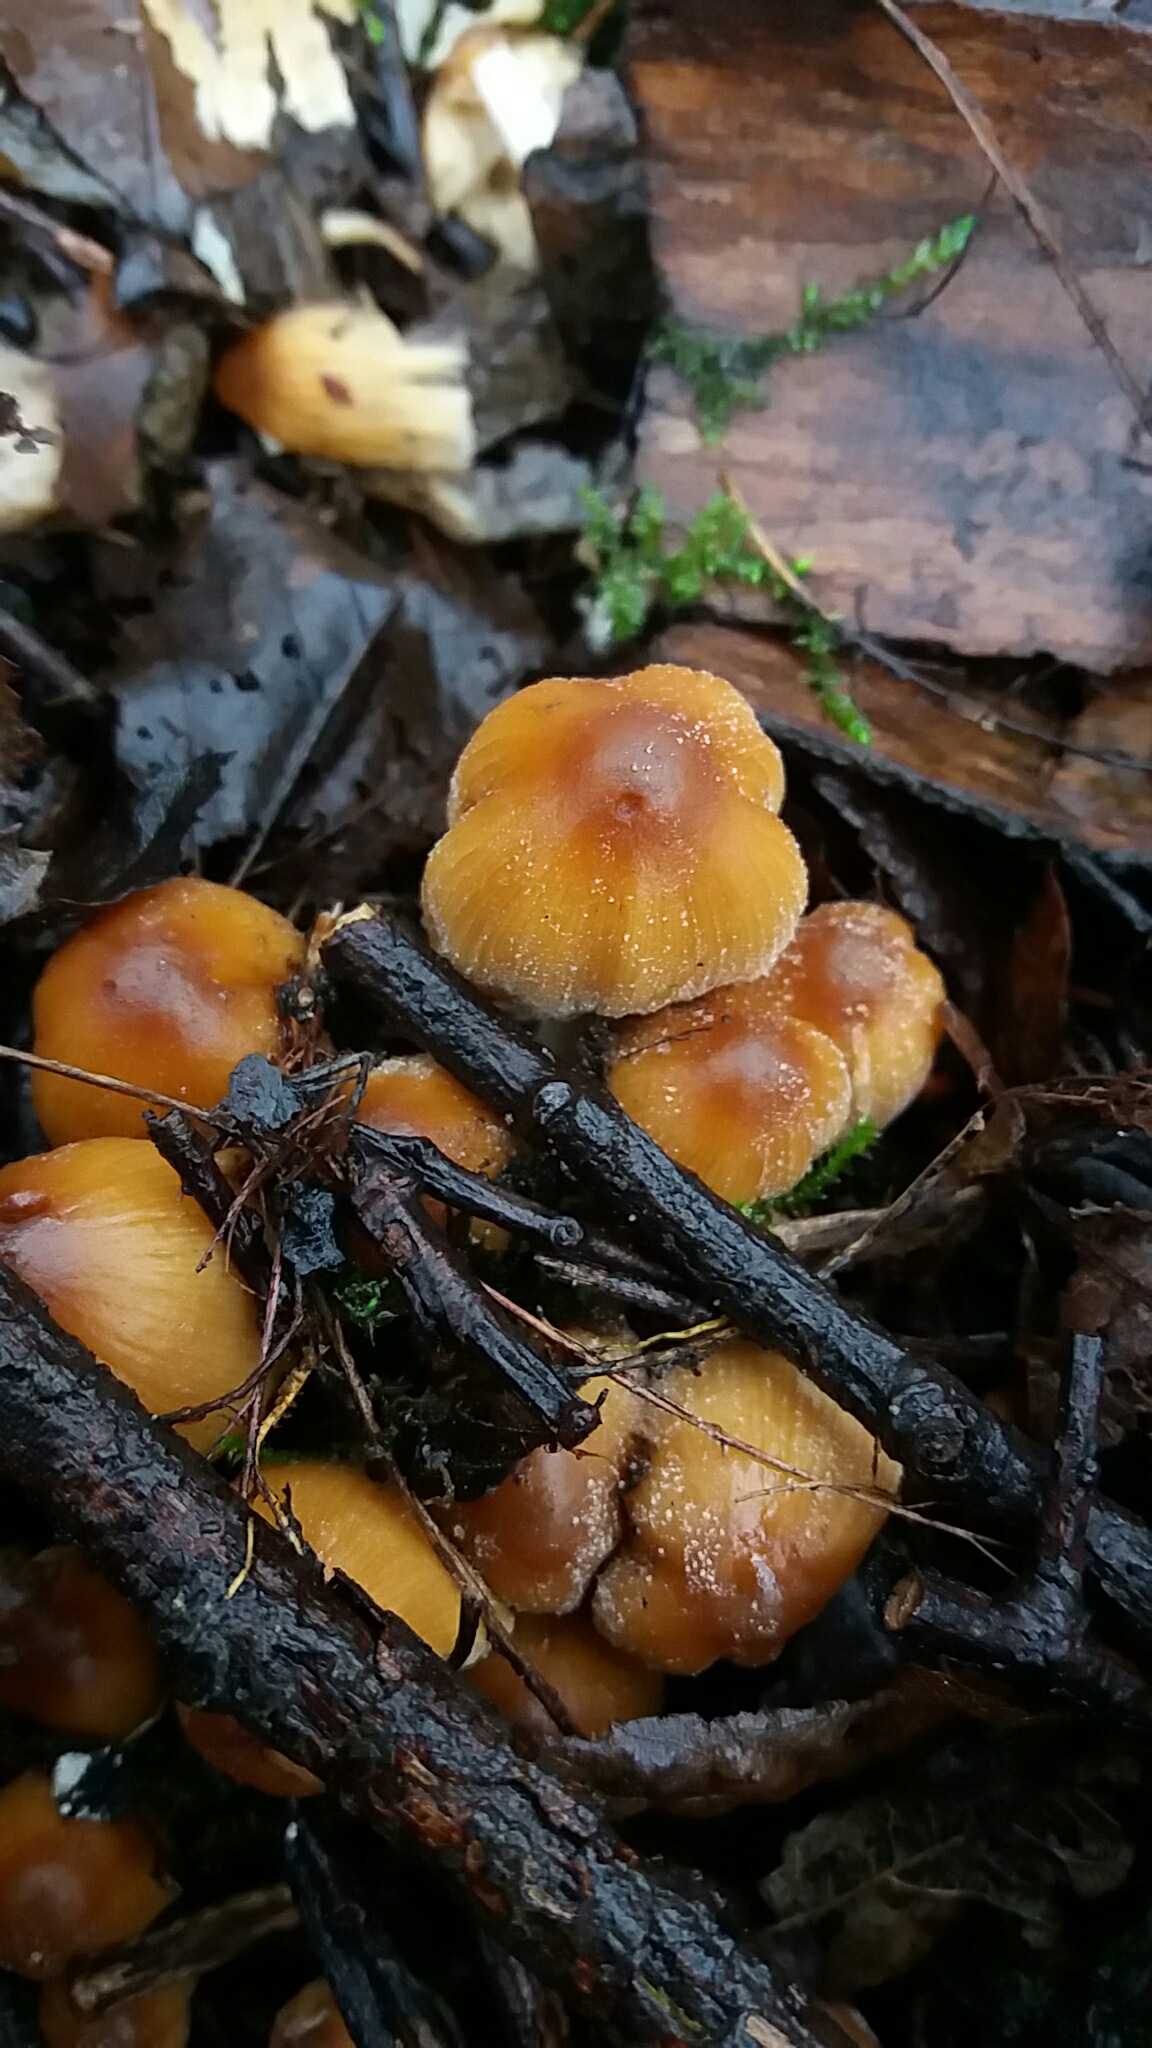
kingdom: Fungi
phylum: Basidiomycota
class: Agaricomycetes
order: Agaricales
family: Psathyrellaceae
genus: Coprinellus
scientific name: Coprinellus micaceus
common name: glimmer-blækhat
